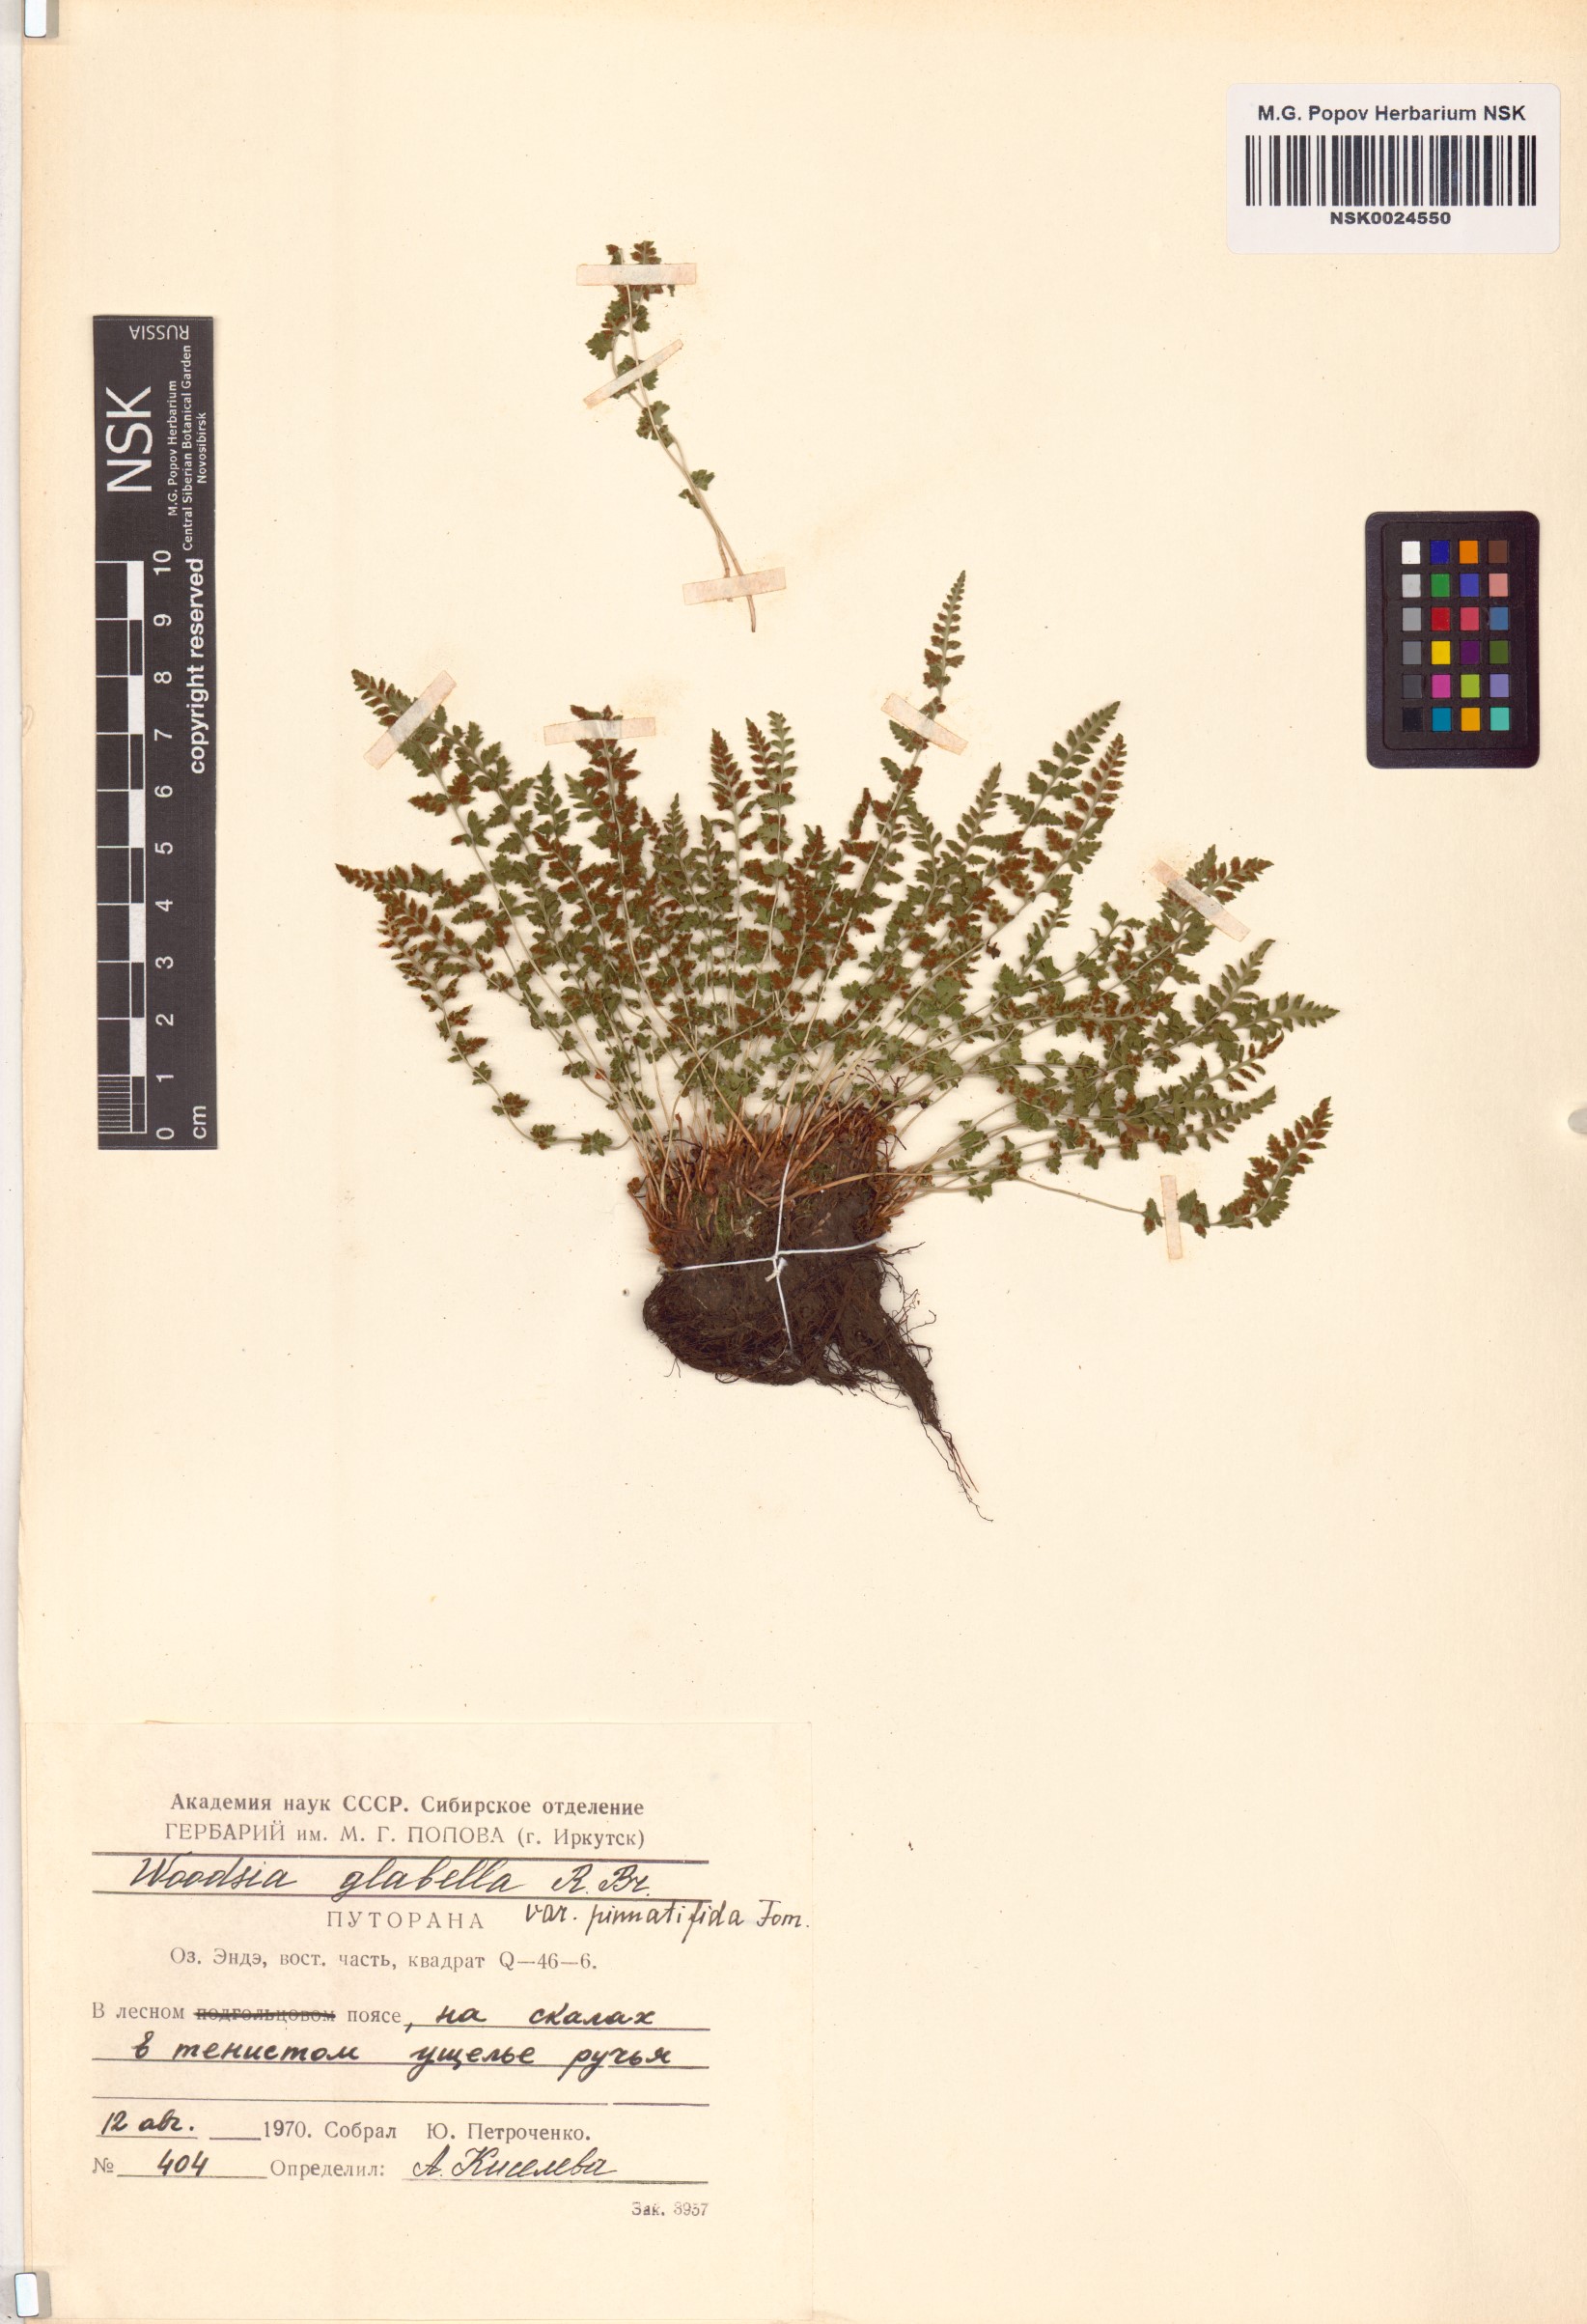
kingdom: Plantae
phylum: Tracheophyta
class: Polypodiopsida
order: Polypodiales
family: Woodsiaceae
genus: Woodsia
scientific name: Woodsia pulchella
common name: Graceful woodsia
